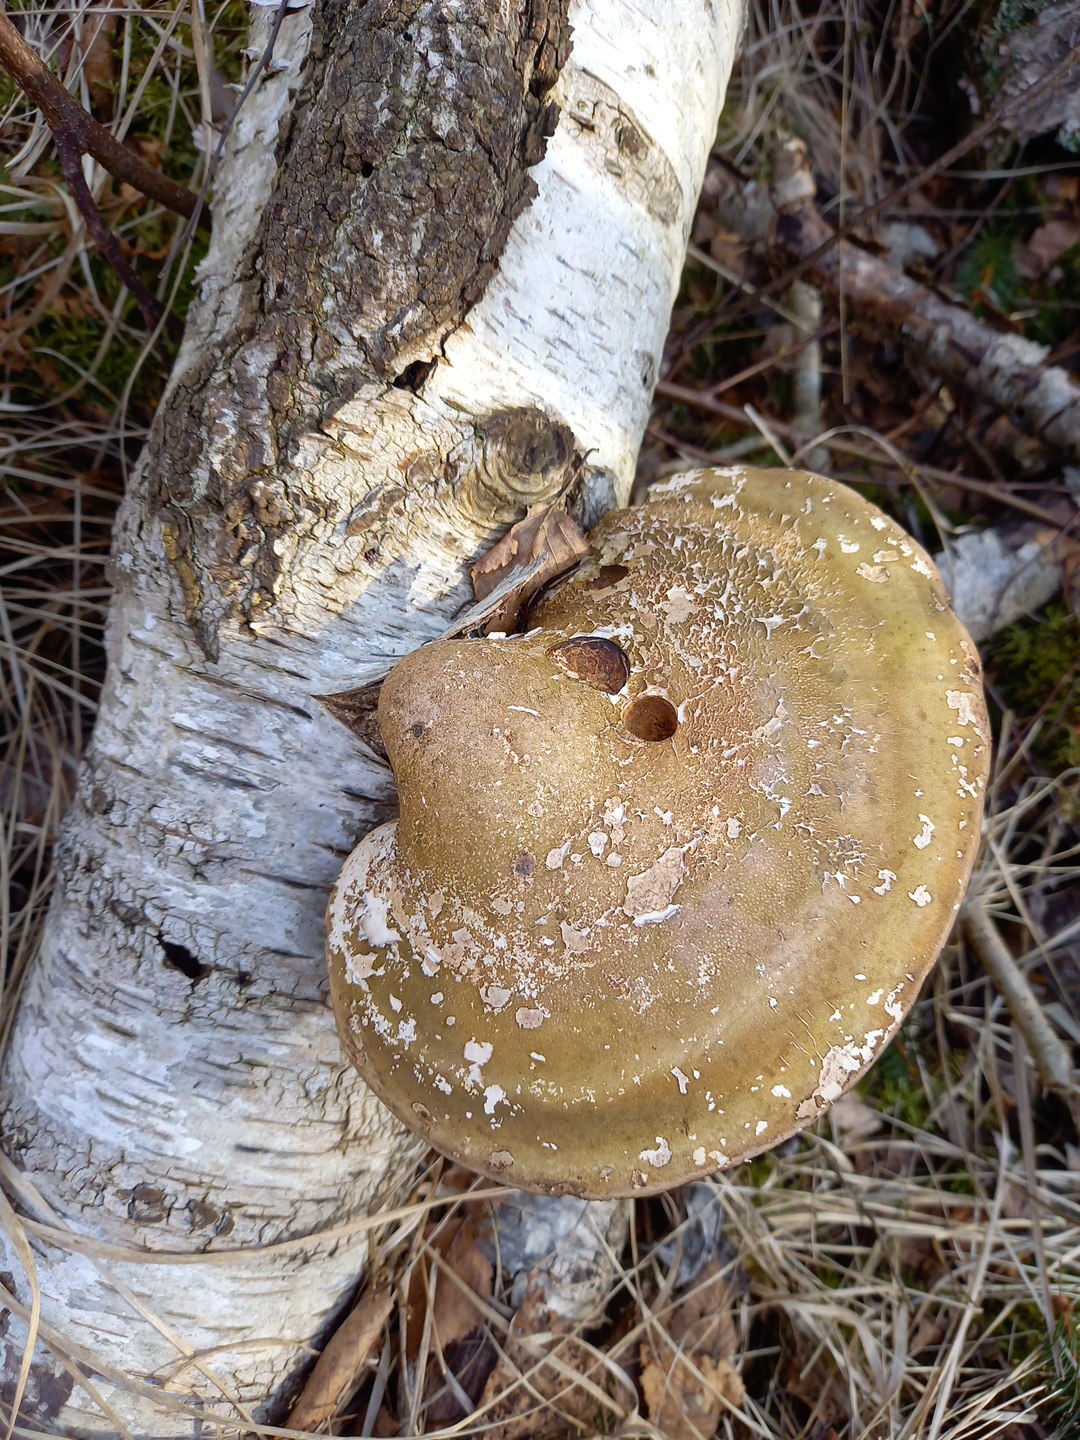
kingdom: Fungi
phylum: Basidiomycota
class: Agaricomycetes
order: Polyporales
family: Fomitopsidaceae
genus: Fomitopsis
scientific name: Fomitopsis betulina
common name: birkeporesvamp
